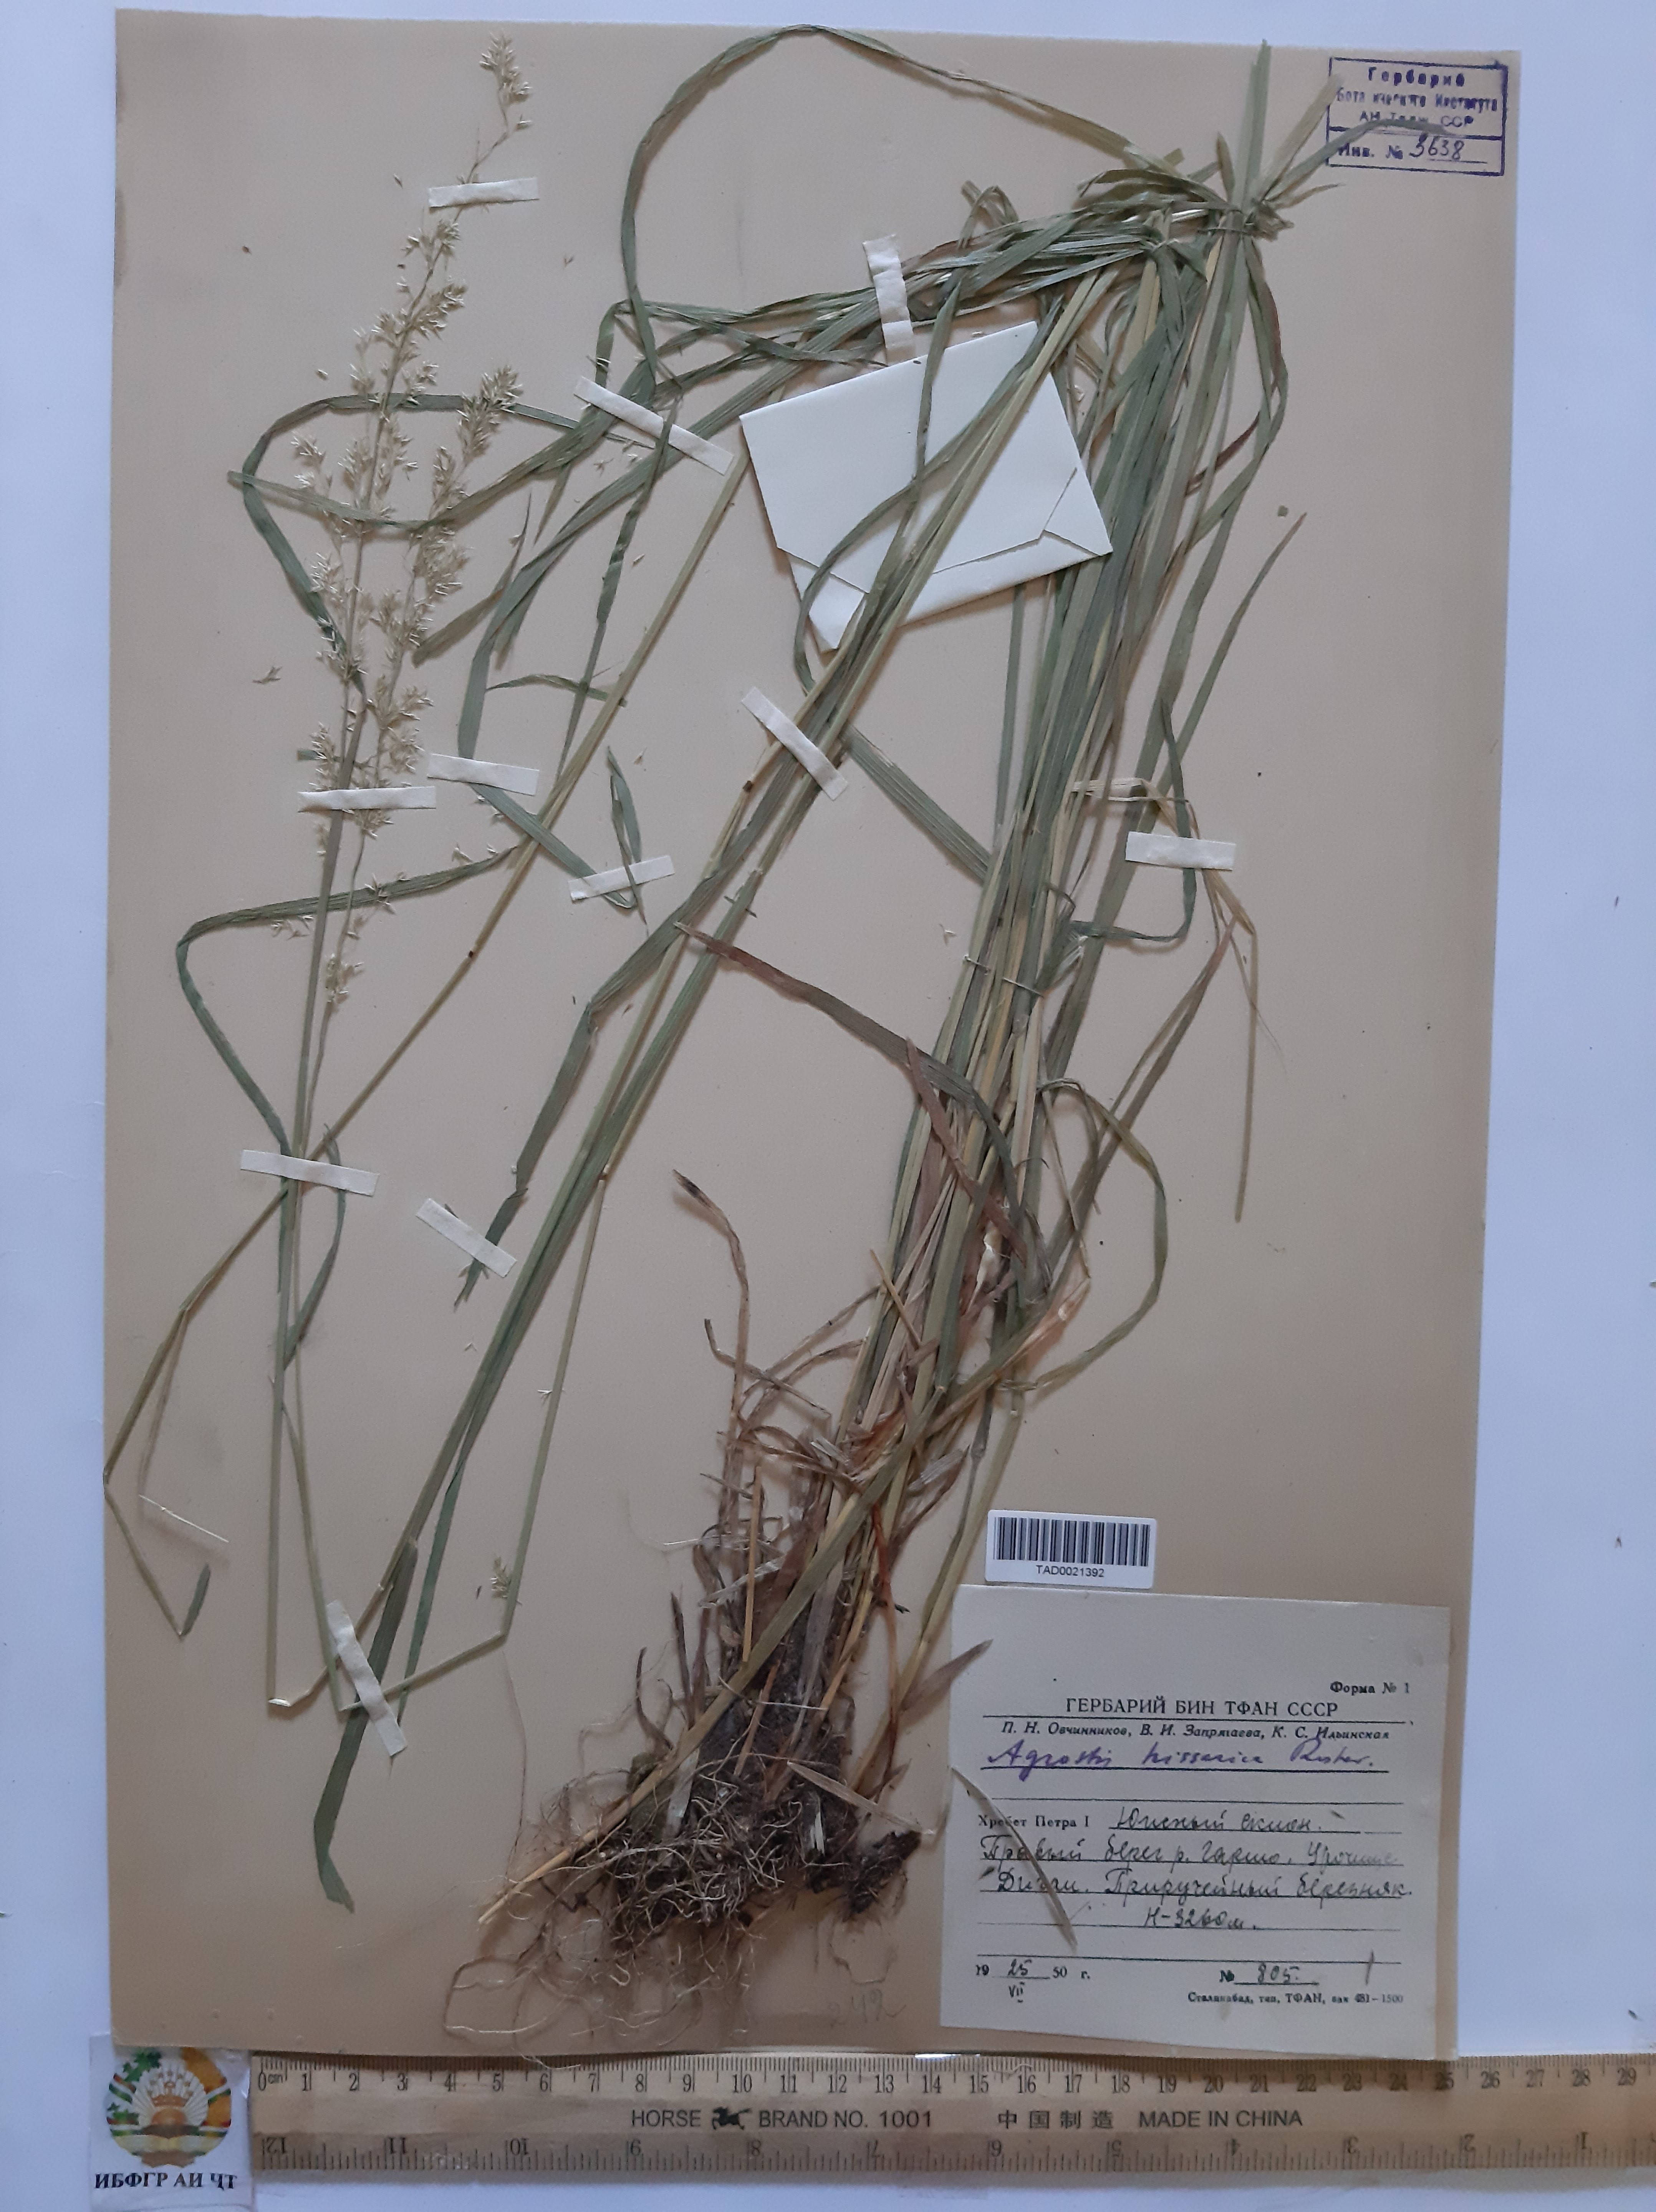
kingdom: Plantae
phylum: Tracheophyta
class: Liliopsida
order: Poales
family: Poaceae
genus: Polypogon
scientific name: Polypogon hissaricus
